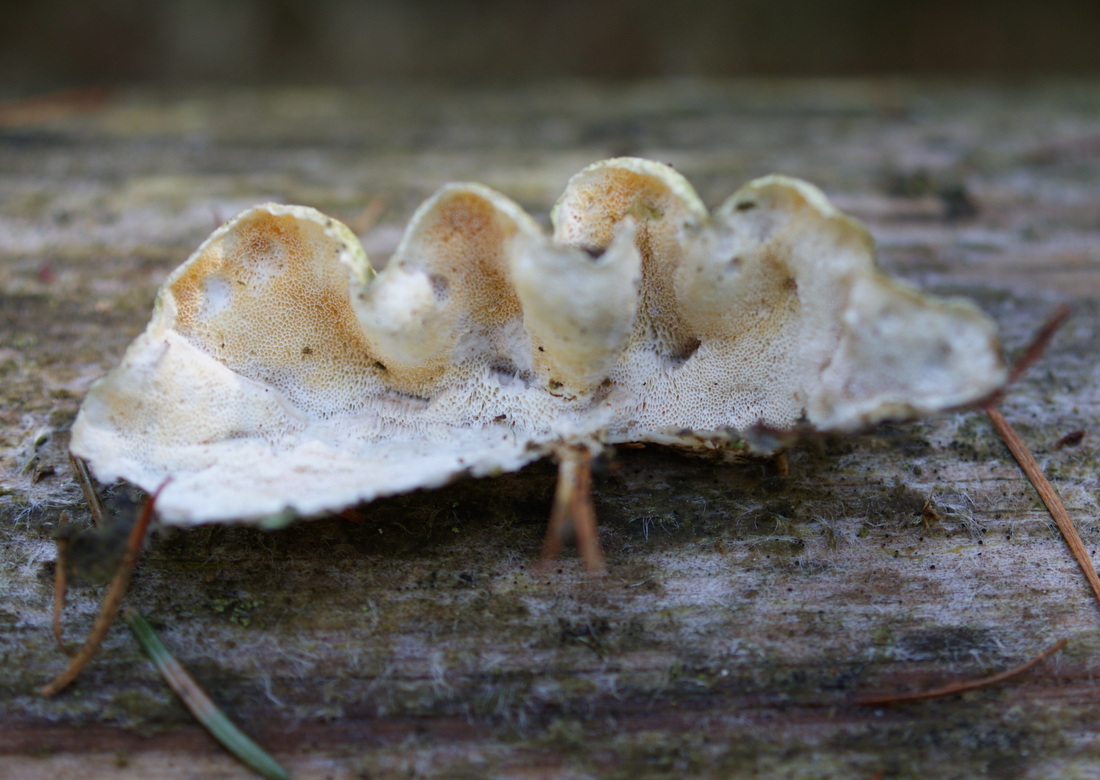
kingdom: Fungi
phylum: Basidiomycota
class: Agaricomycetes
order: Polyporales
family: Incrustoporiaceae
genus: Skeletocutis
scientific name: Skeletocutis amorpha
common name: orange krystalporesvamp
